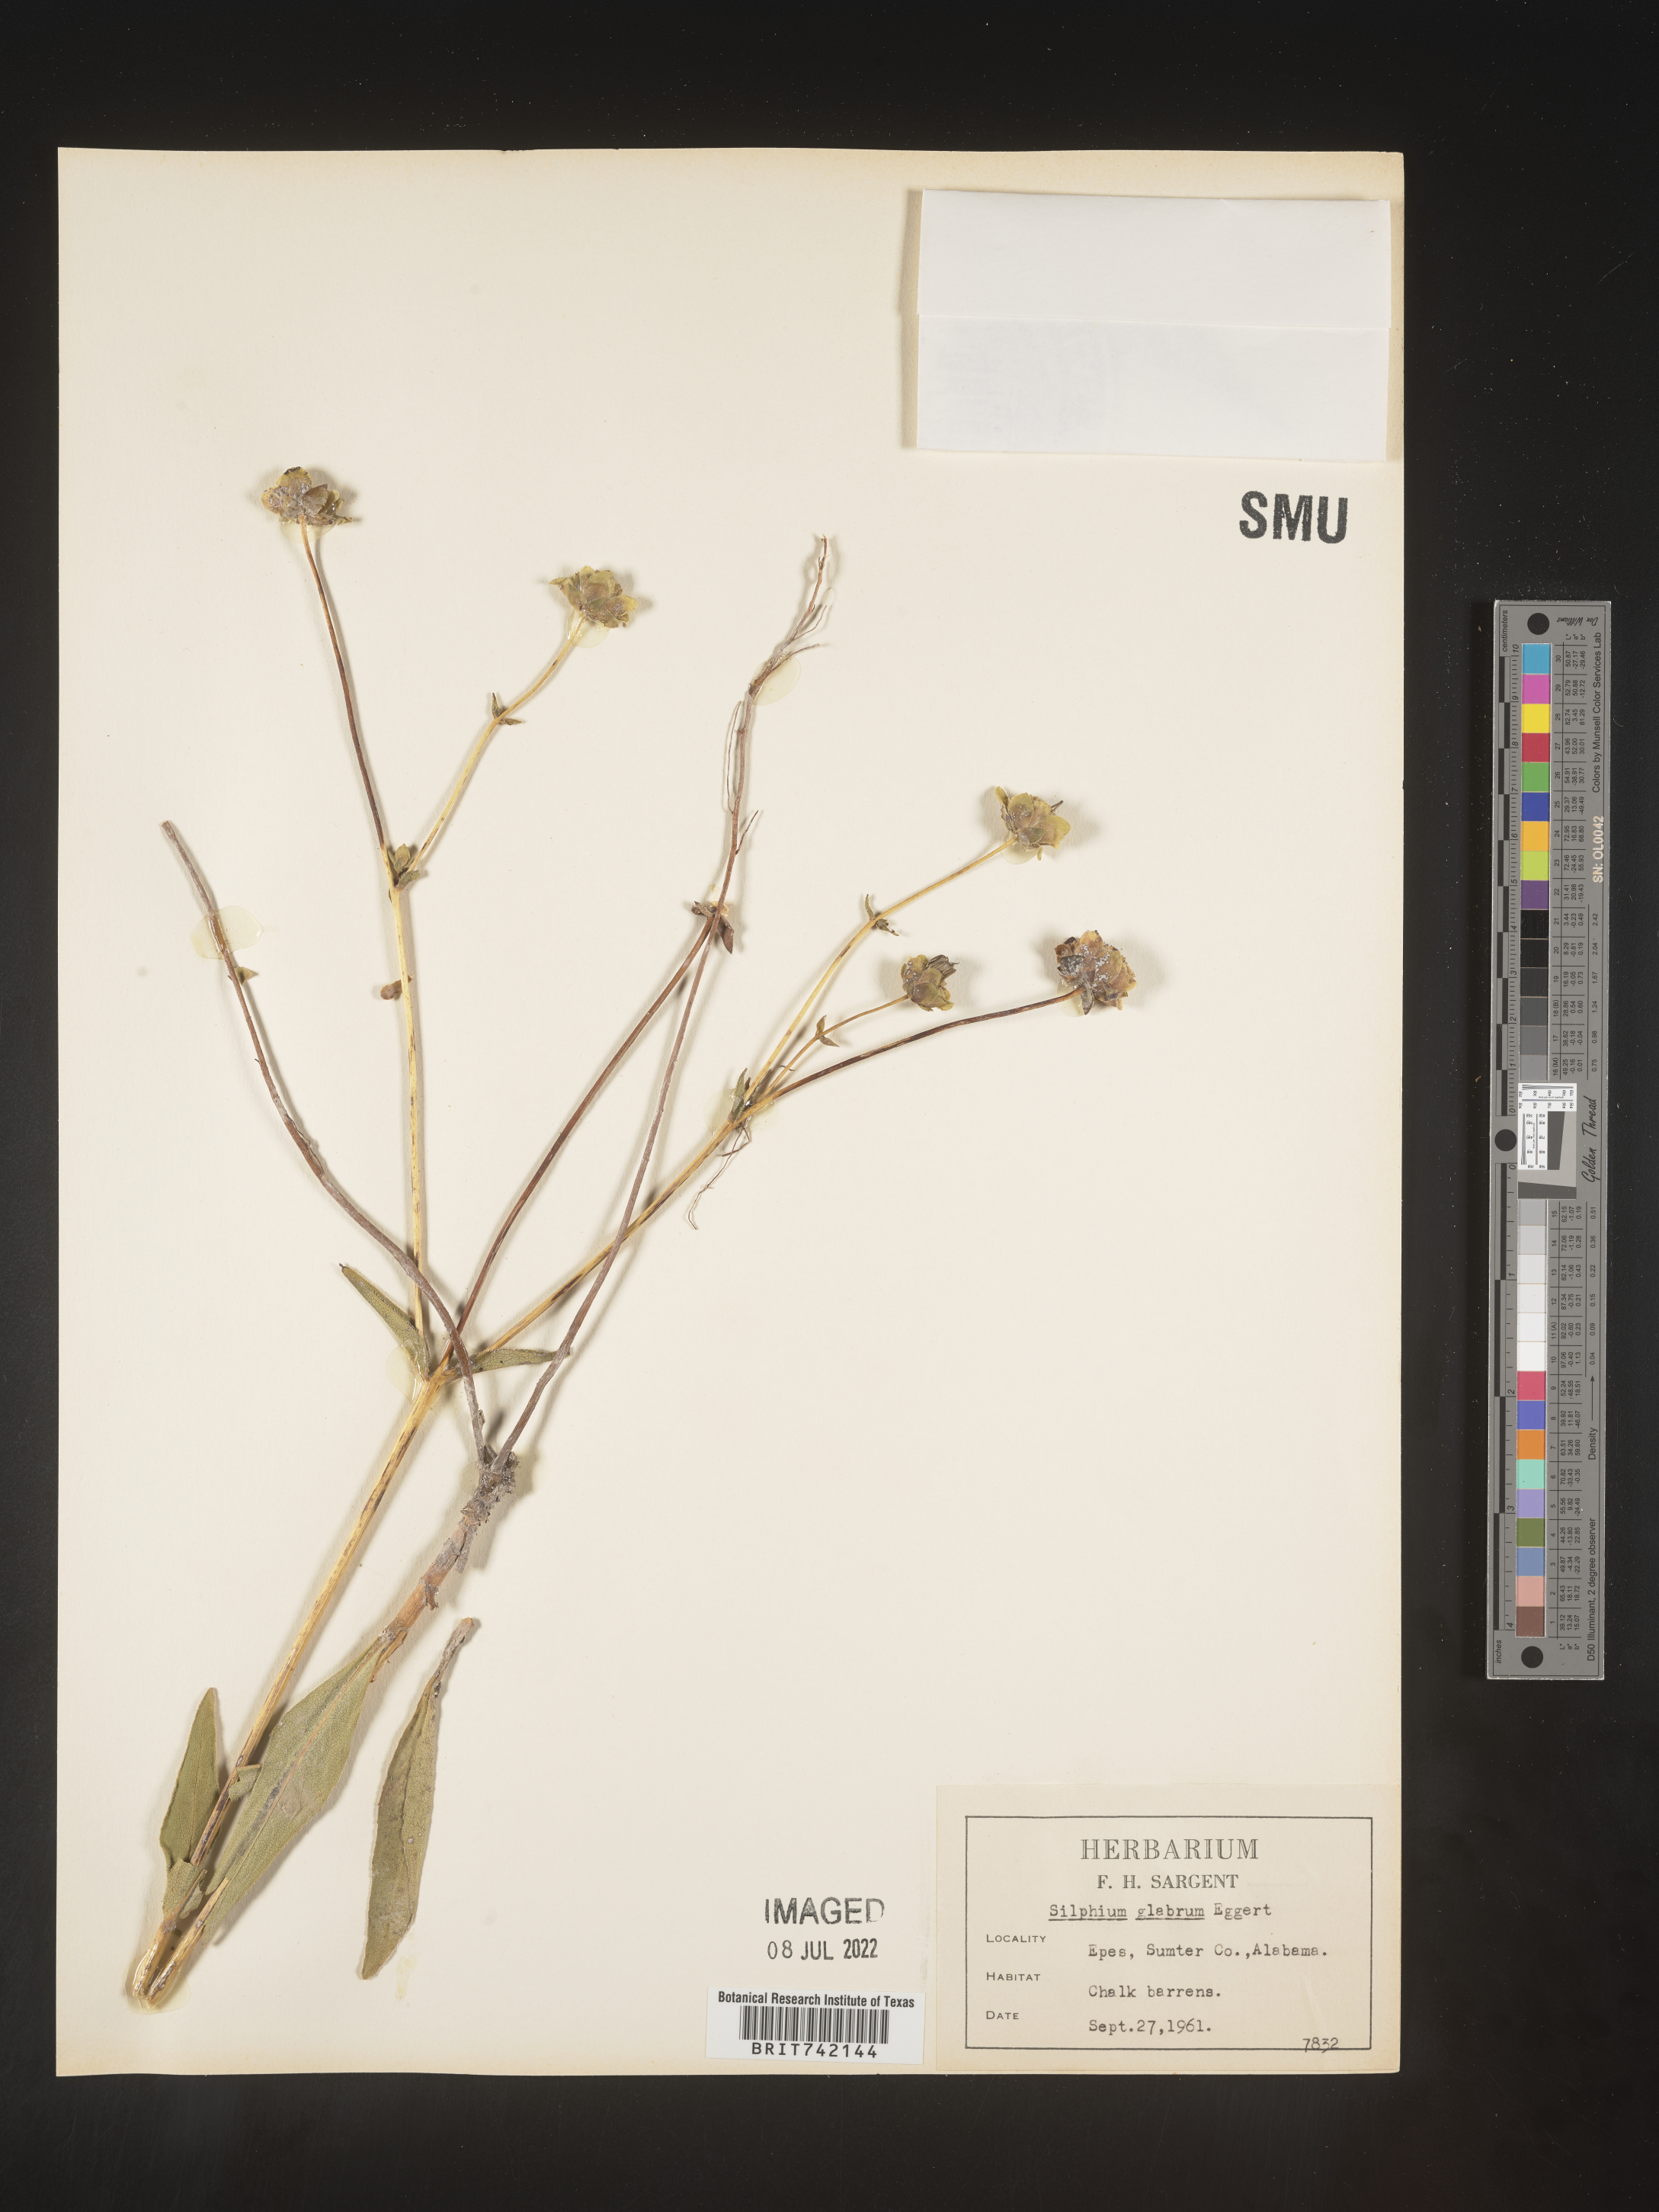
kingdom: Plantae
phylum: Tracheophyta
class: Magnoliopsida
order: Asterales
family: Asteraceae
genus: Silphium
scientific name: Silphium glabrum
